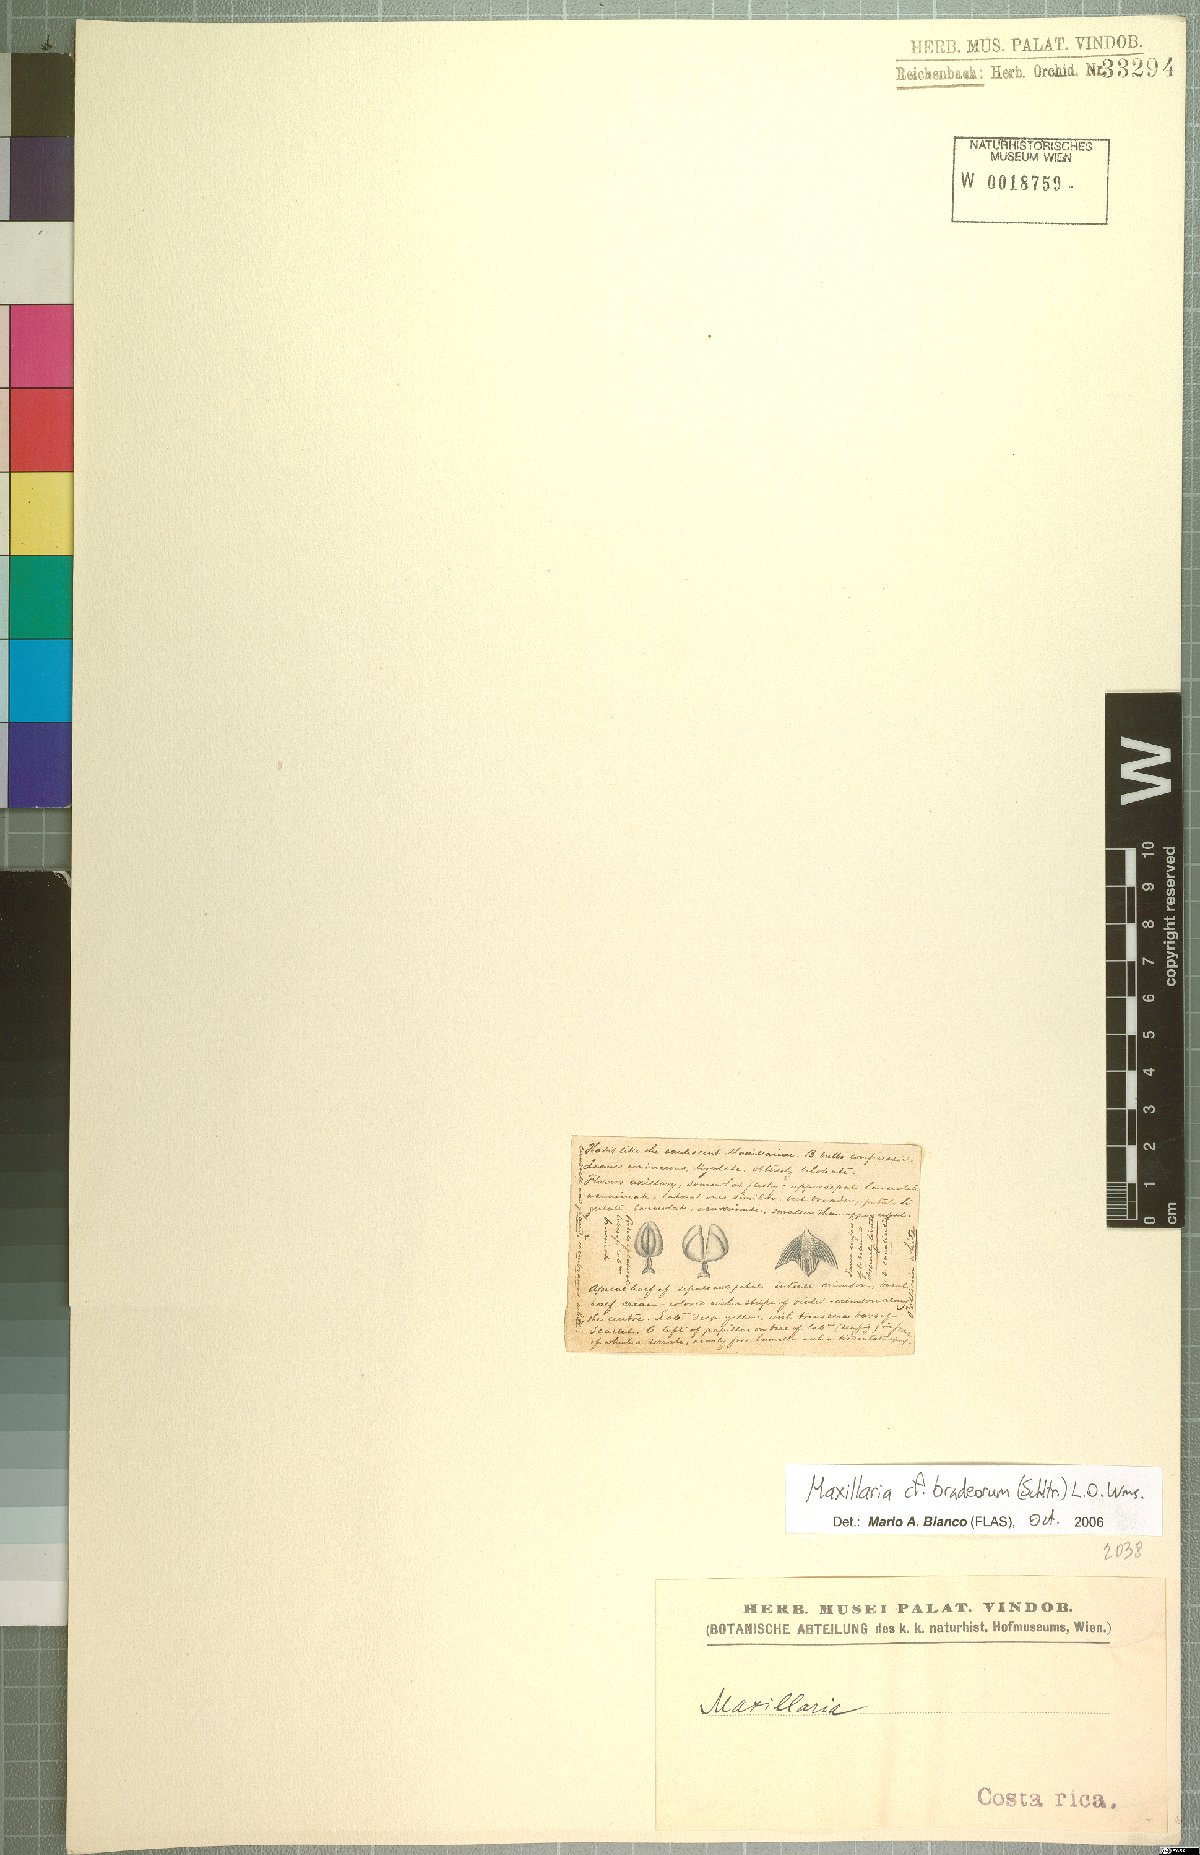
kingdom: Plantae
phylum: Tracheophyta
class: Liliopsida
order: Asparagales
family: Orchidaceae
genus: Maxillaria
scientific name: Maxillaria bradeorum
